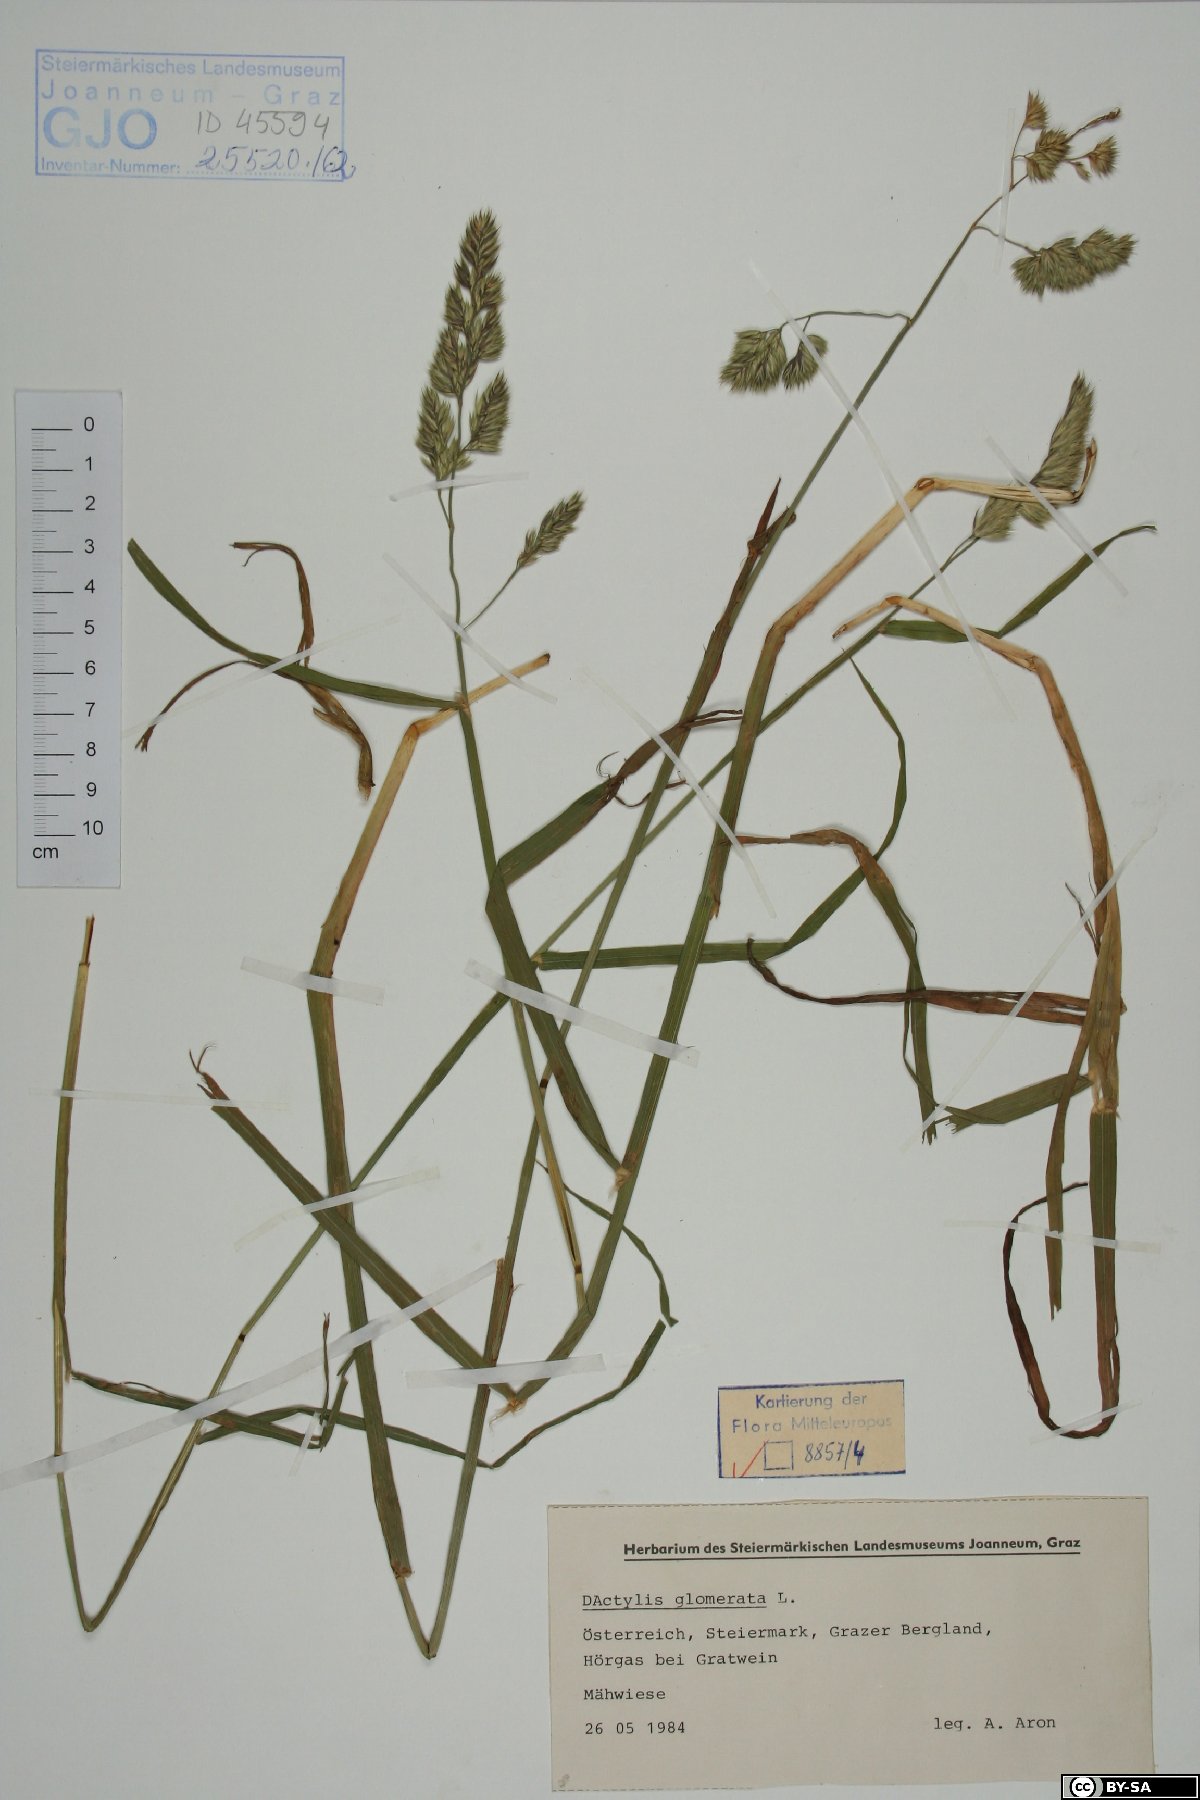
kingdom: Plantae
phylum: Tracheophyta
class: Liliopsida
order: Poales
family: Poaceae
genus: Dactylis
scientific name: Dactylis glomerata
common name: Orchardgrass
